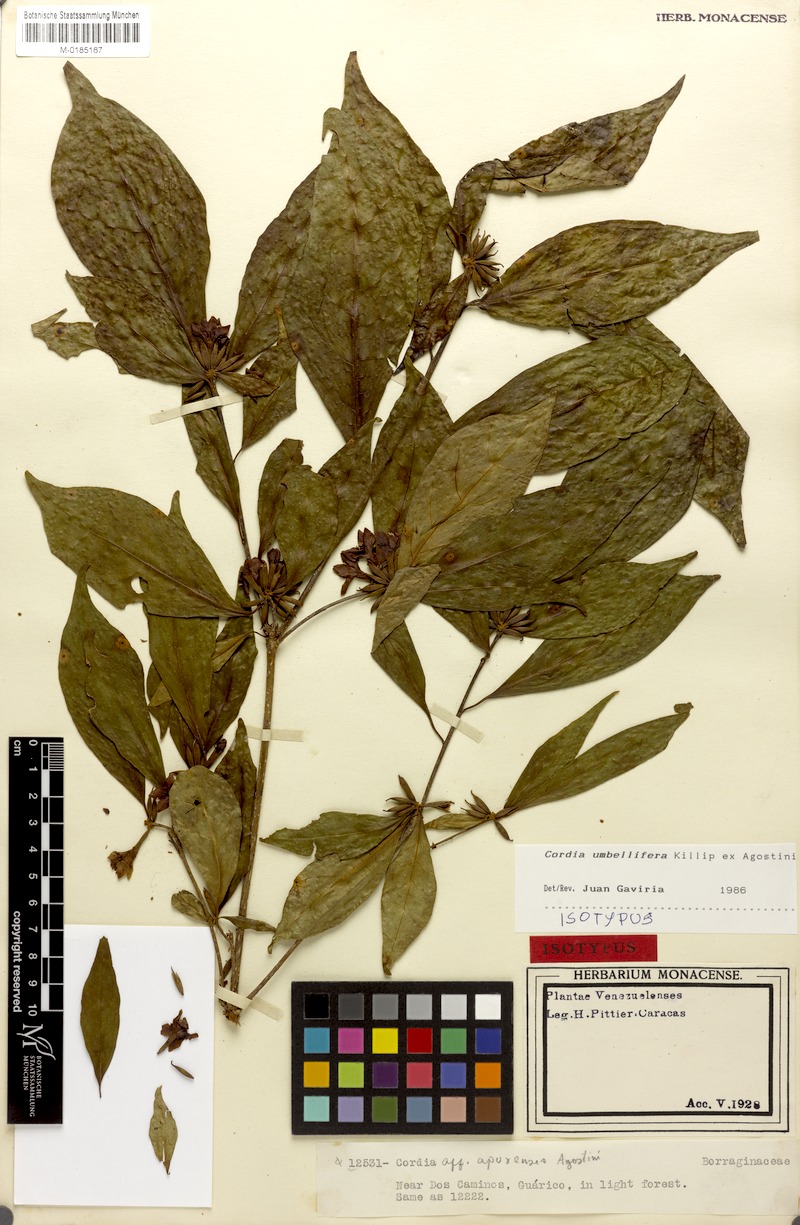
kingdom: Plantae
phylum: Tracheophyta
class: Magnoliopsida
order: Boraginales
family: Cordiaceae
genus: Cordia
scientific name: Cordia umbellifera
